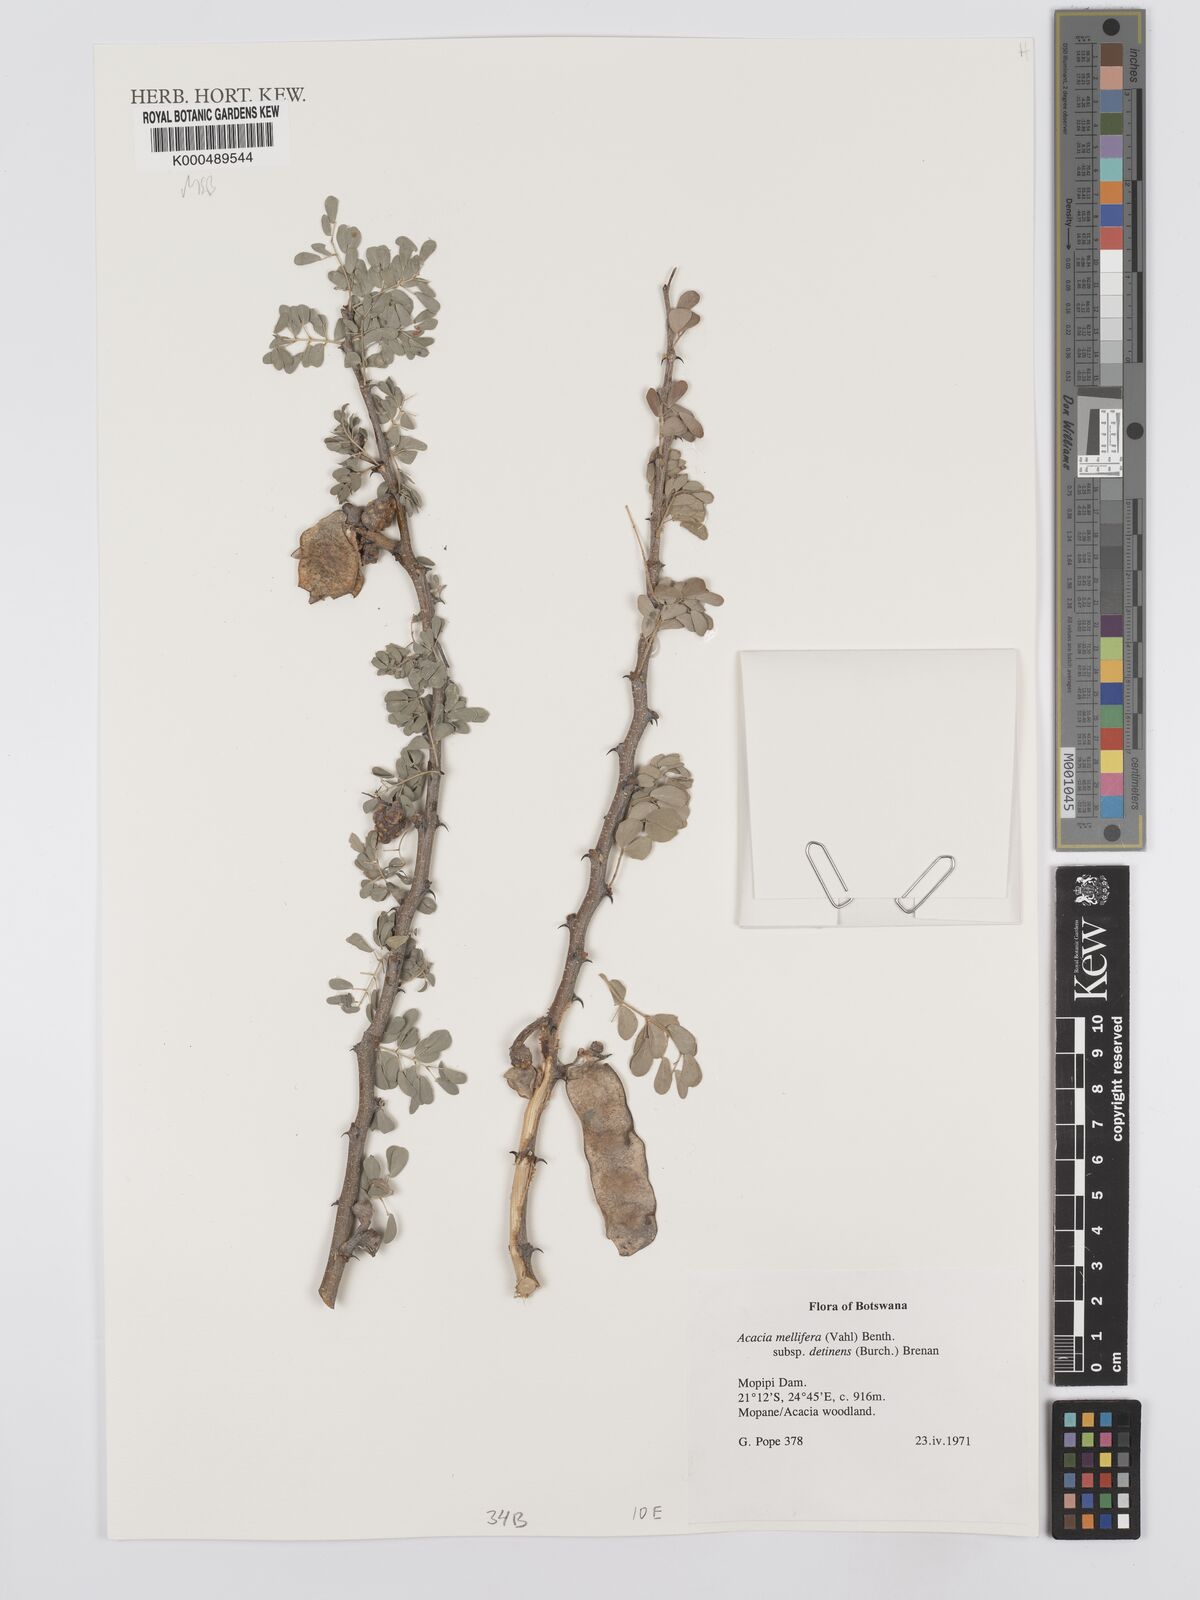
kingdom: Plantae
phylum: Tracheophyta
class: Magnoliopsida
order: Fabales
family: Fabaceae
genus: Senegalia
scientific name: Senegalia mellifera
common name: Hookthorn
